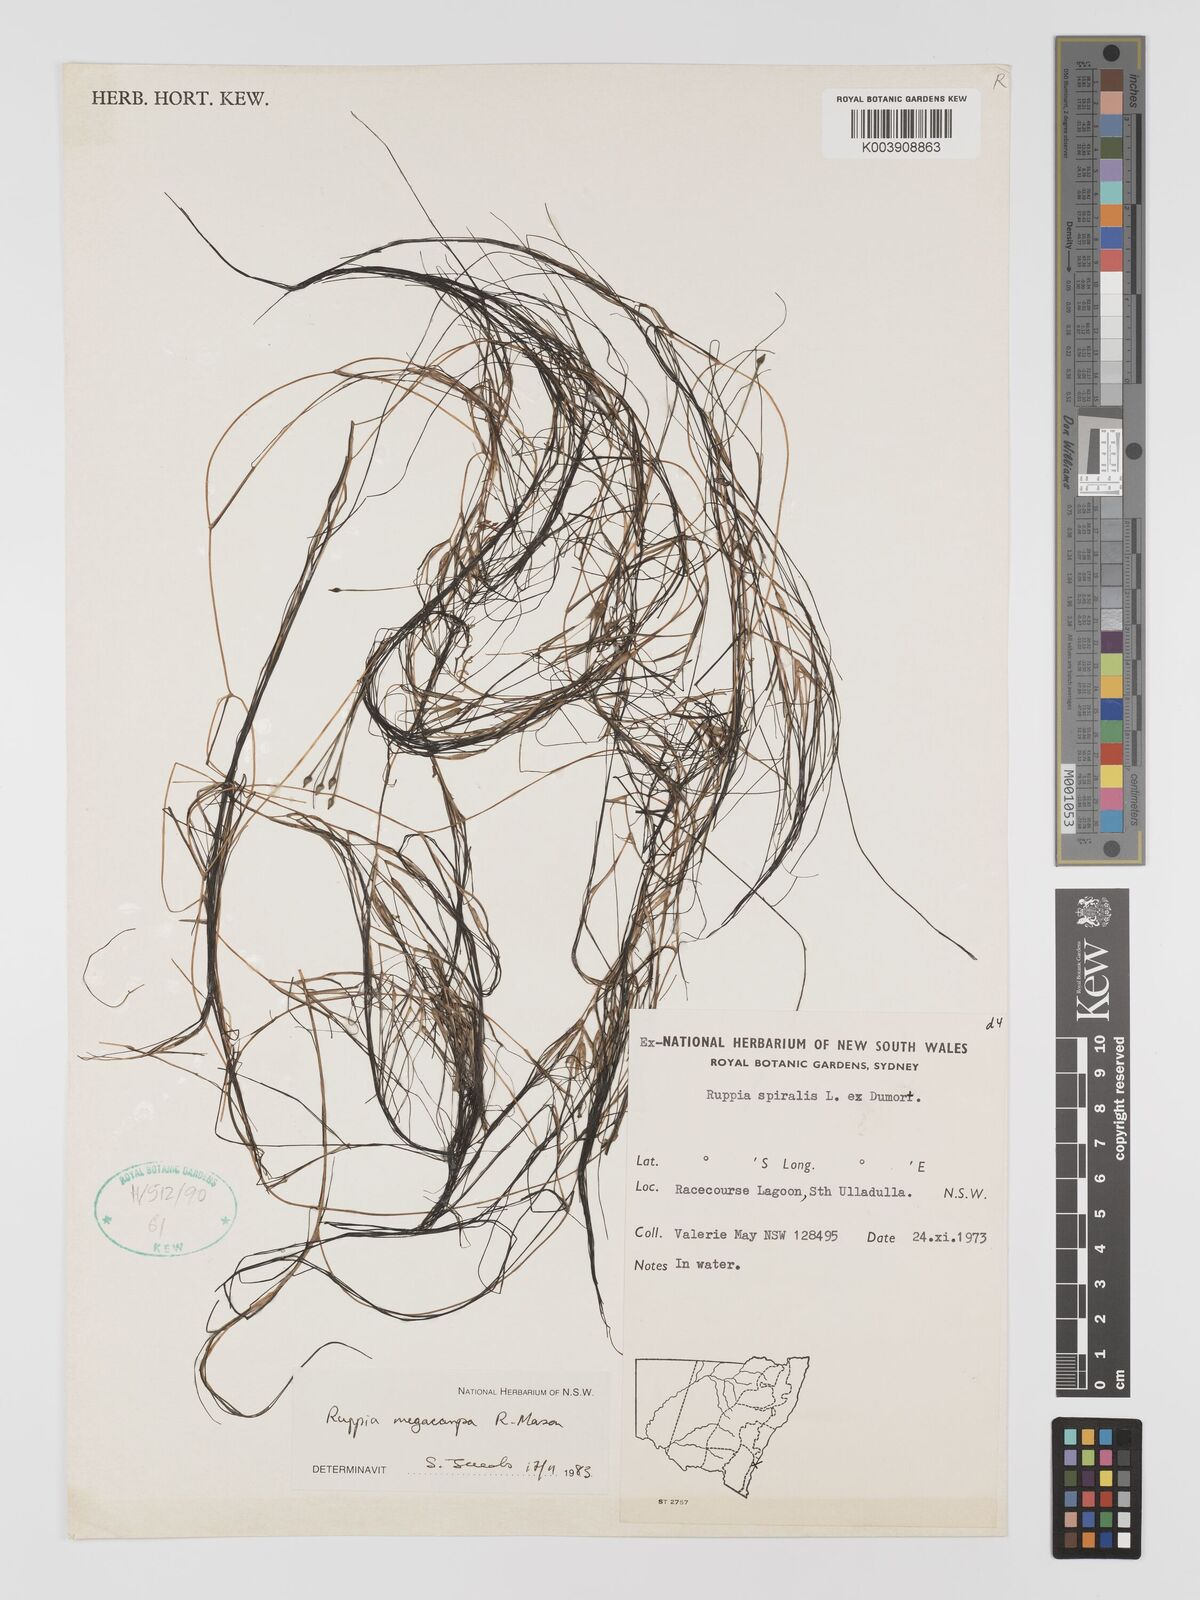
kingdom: Plantae
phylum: Tracheophyta
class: Liliopsida
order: Alismatales
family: Ruppiaceae
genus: Ruppia
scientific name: Ruppia megacarpa
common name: Large-fruit seatassel
